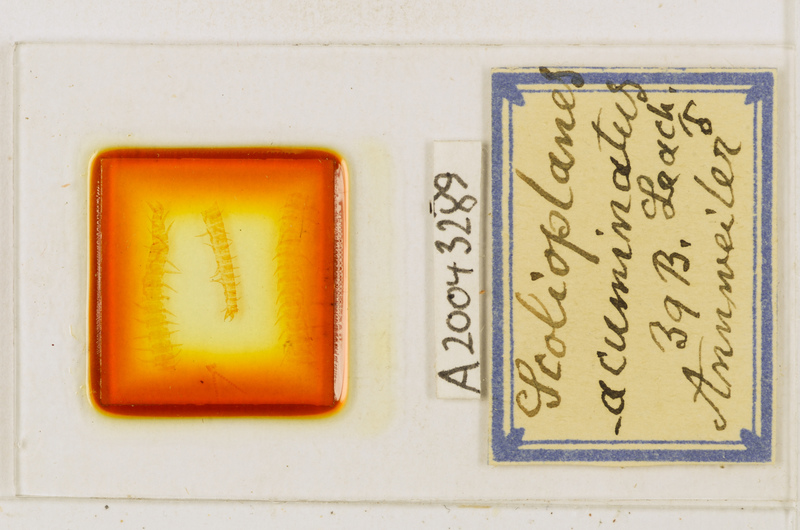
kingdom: Animalia
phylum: Arthropoda
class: Chilopoda
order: Geophilomorpha
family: Linotaeniidae
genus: Strigamia
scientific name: Strigamia acuminata
